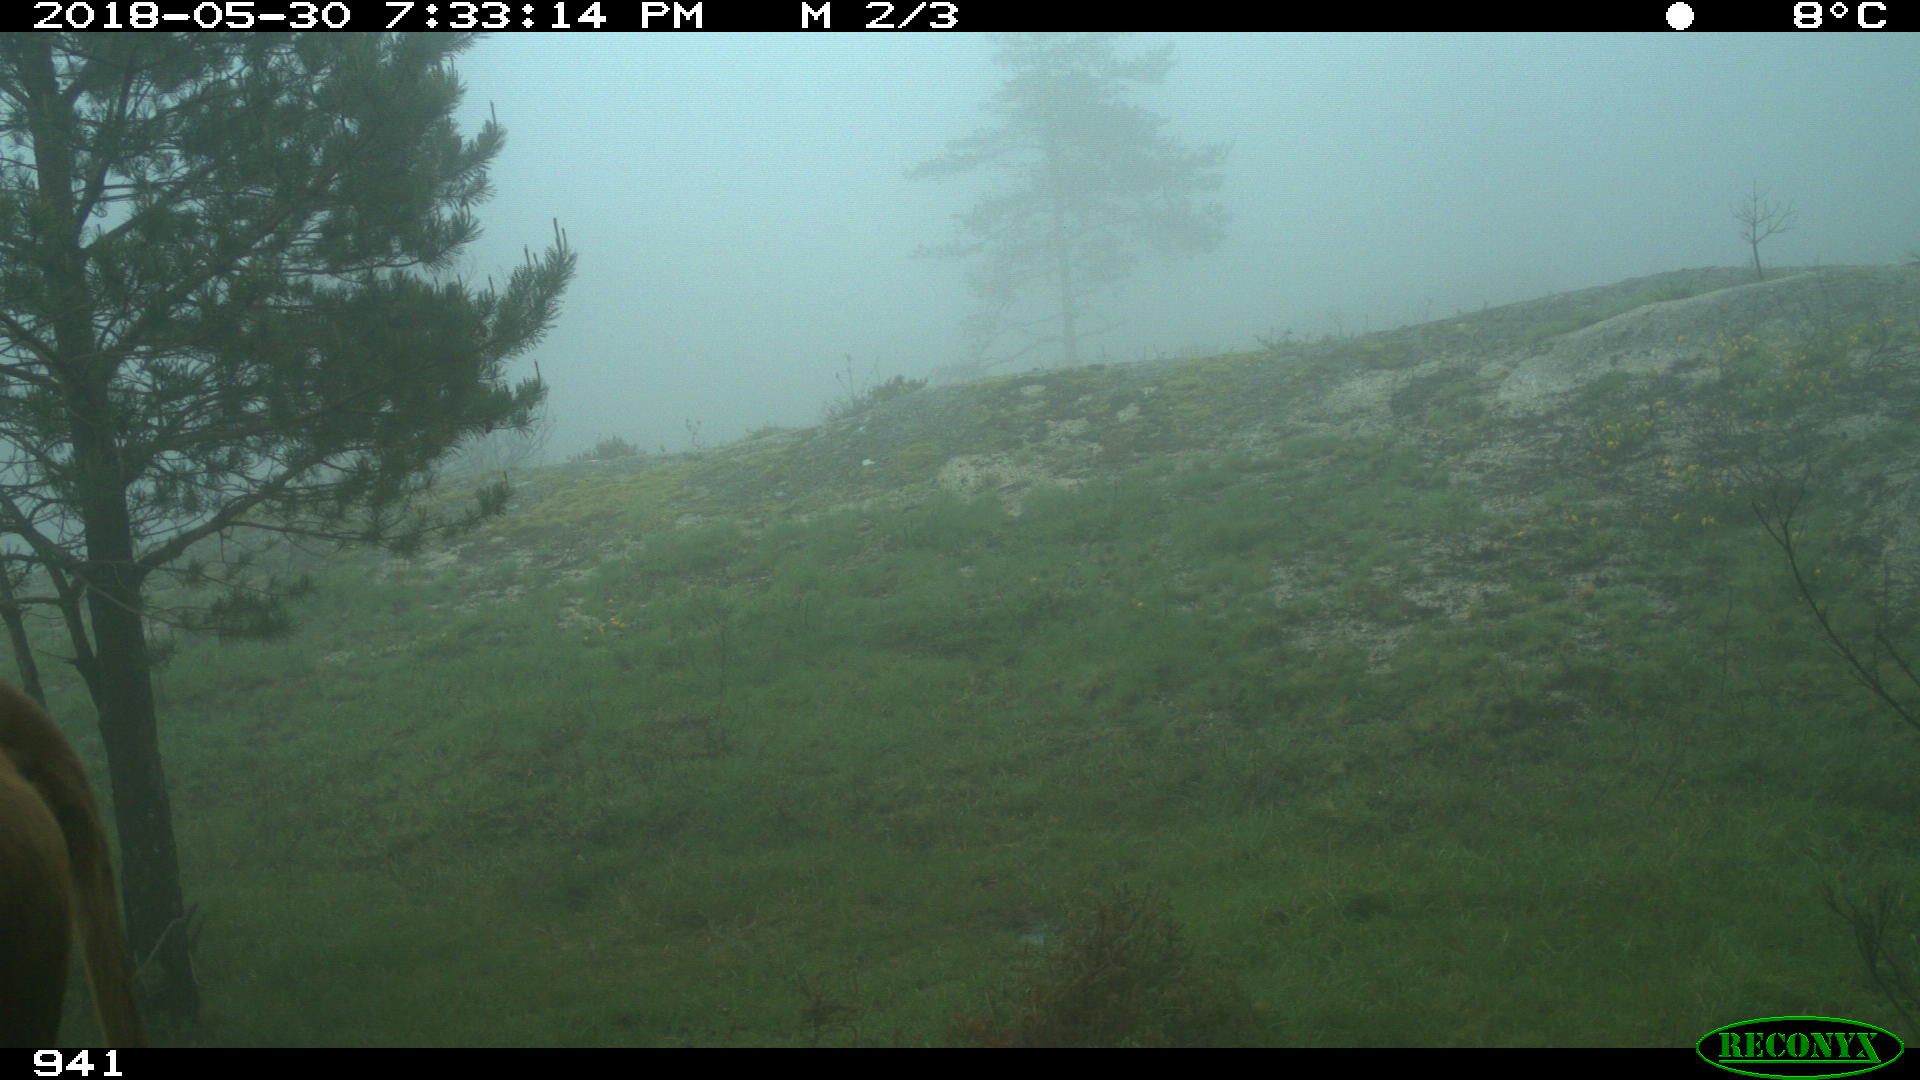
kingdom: Animalia
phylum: Chordata
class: Mammalia
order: Artiodactyla
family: Bovidae
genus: Bos
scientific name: Bos taurus
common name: Domesticated cattle
